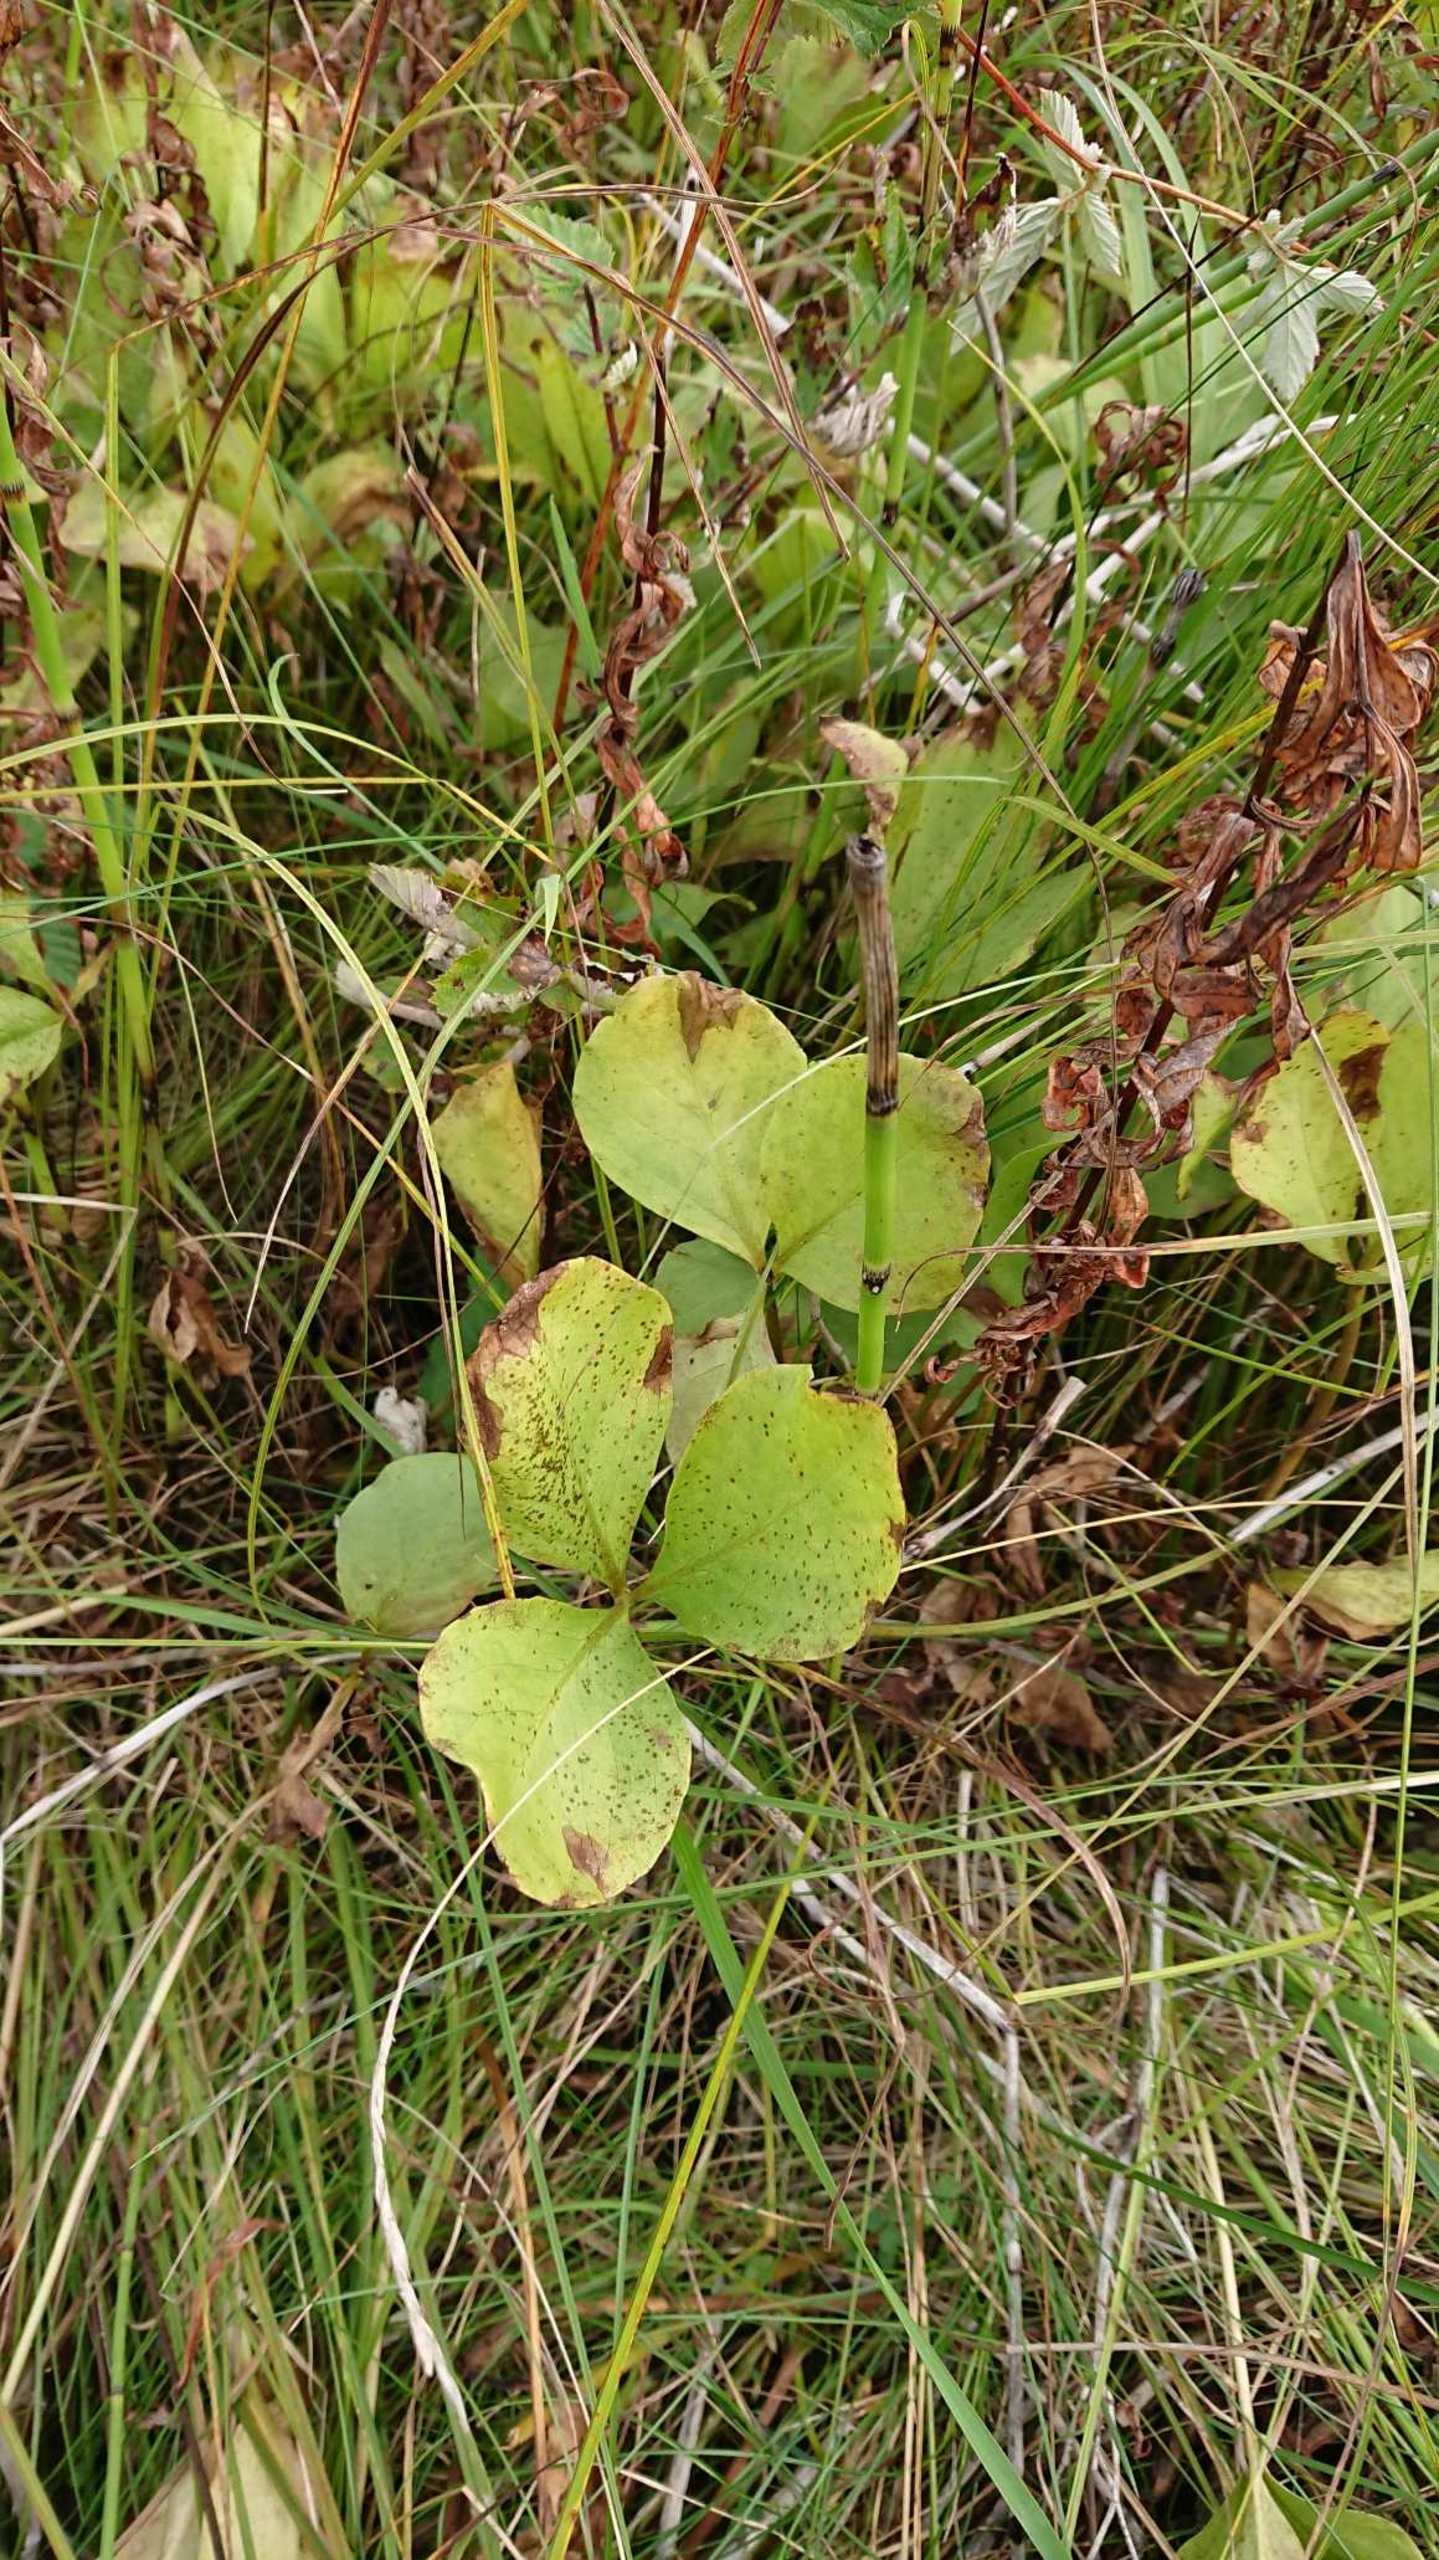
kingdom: Plantae
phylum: Tracheophyta
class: Magnoliopsida
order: Asterales
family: Menyanthaceae
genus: Menyanthes
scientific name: Menyanthes trifoliata
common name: Bukkeblad
